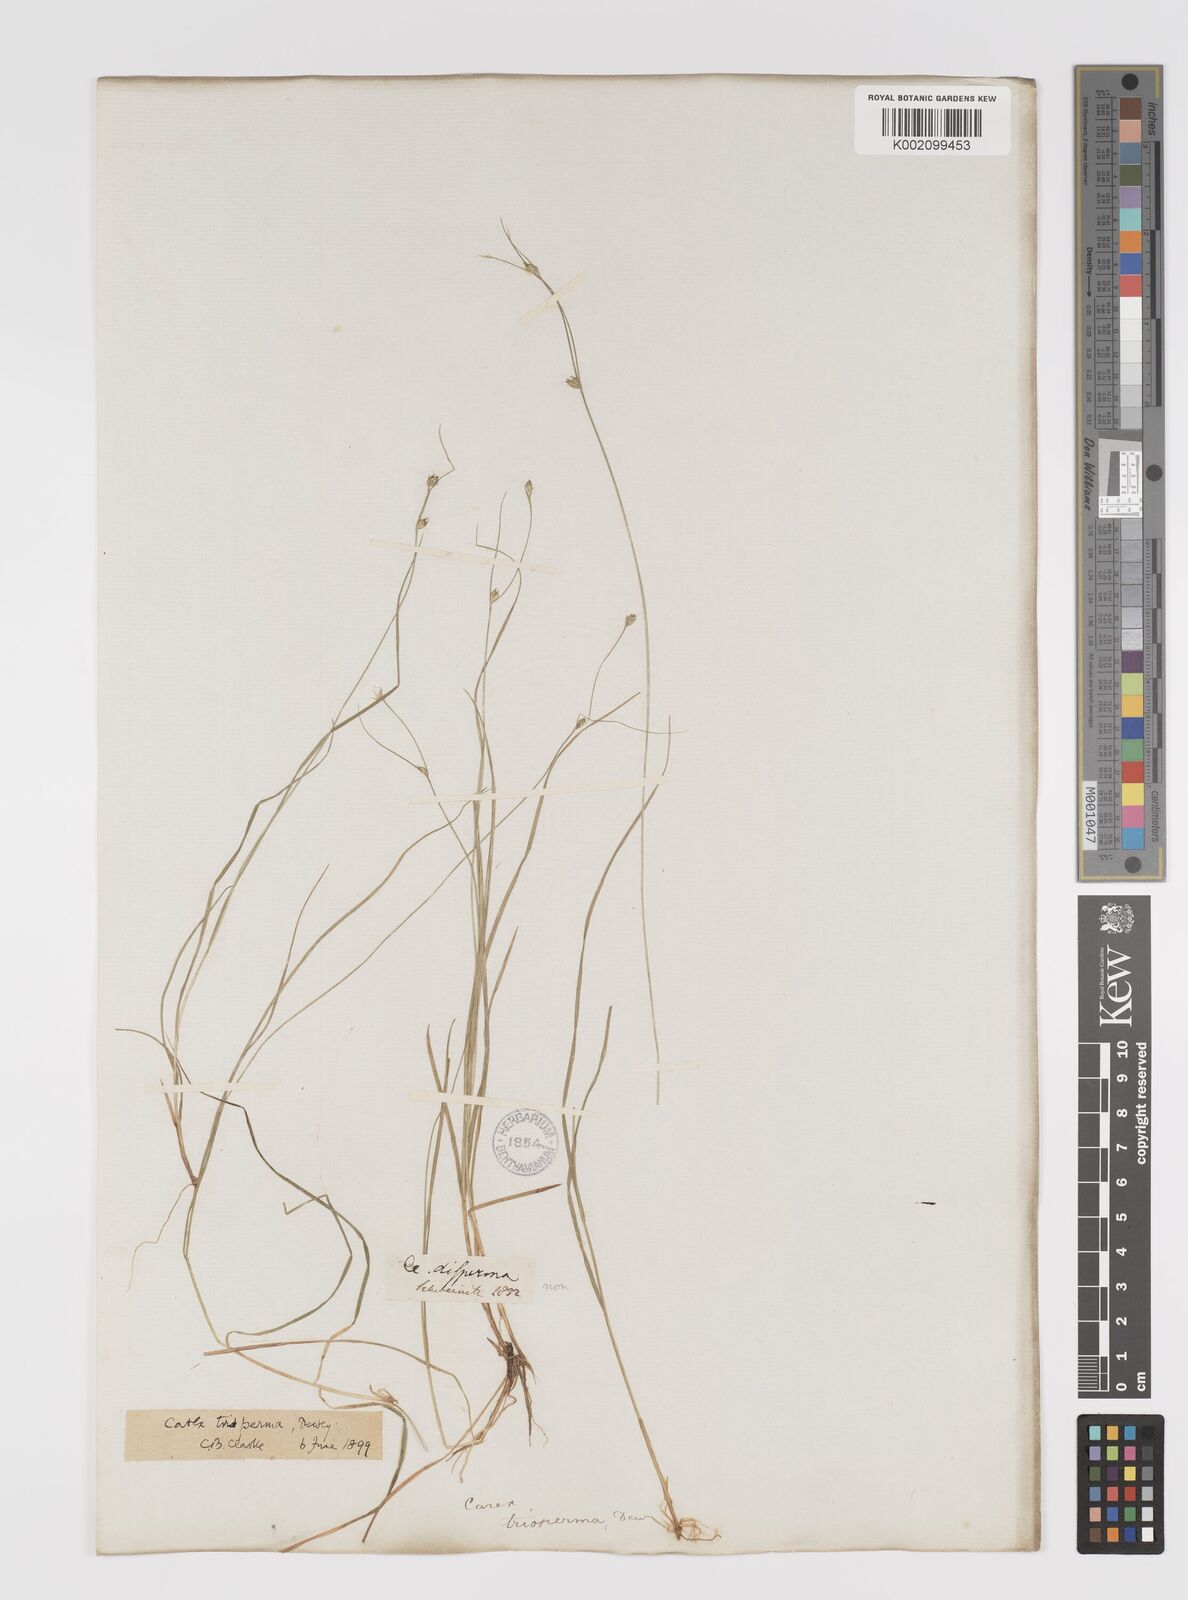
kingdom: Plantae
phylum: Tracheophyta
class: Liliopsida
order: Poales
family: Cyperaceae
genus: Carex
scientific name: Carex trisperma
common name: Three-seeded sedge
